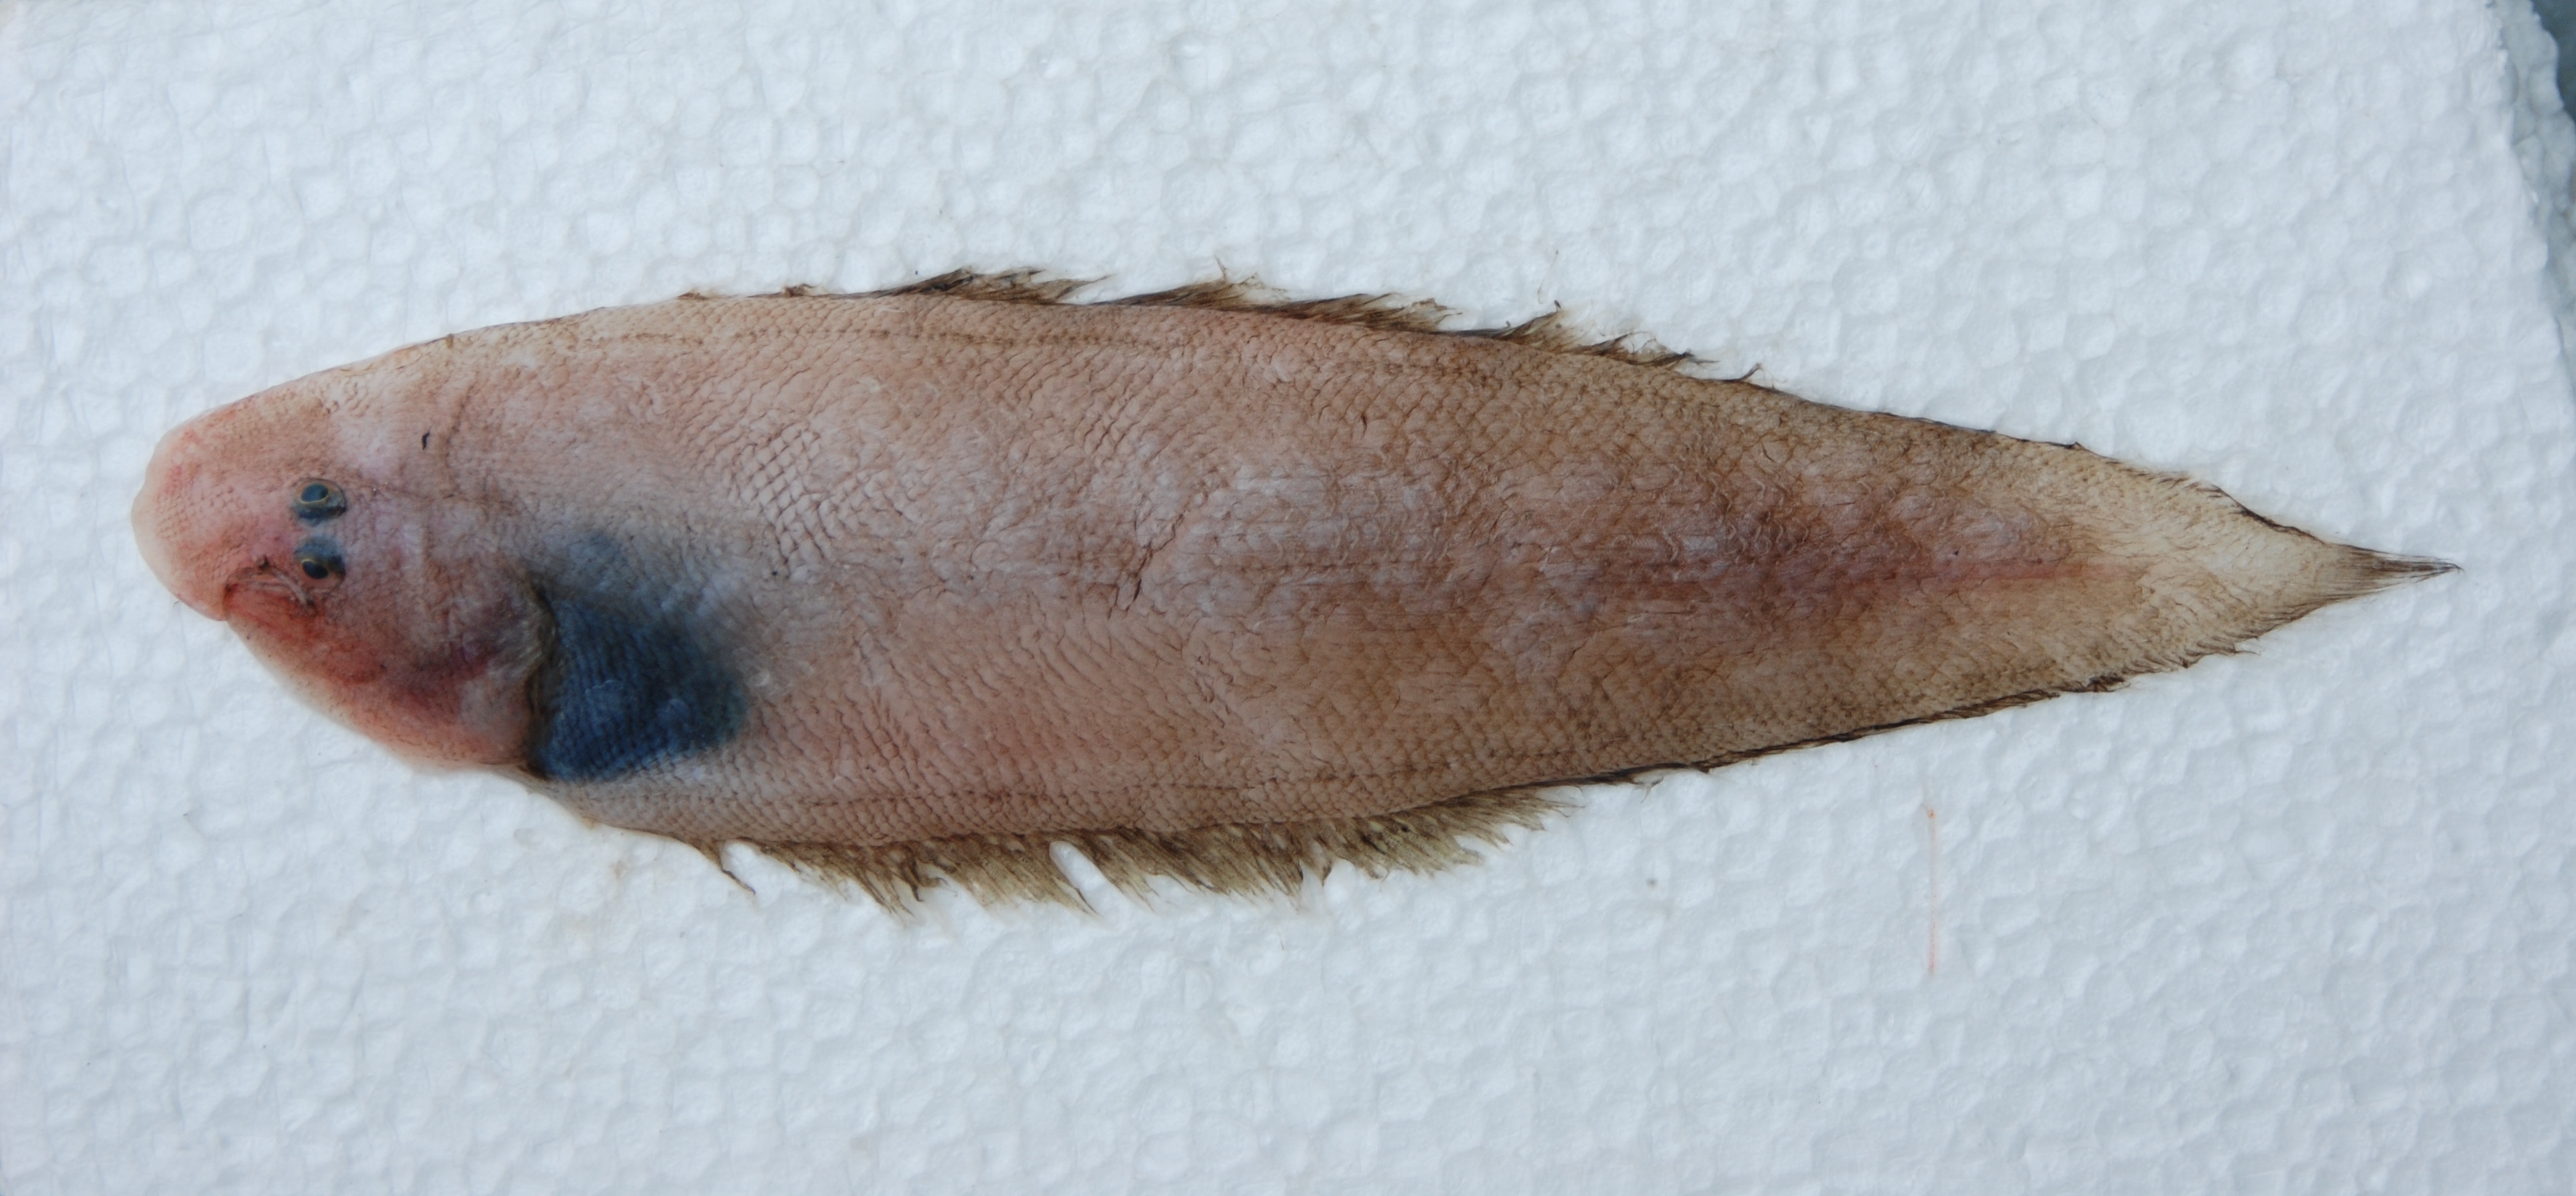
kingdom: Animalia
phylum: Chordata
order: Pleuronectiformes
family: Cynoglossidae
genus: Cynoglossus
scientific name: Cynoglossus sealarki
